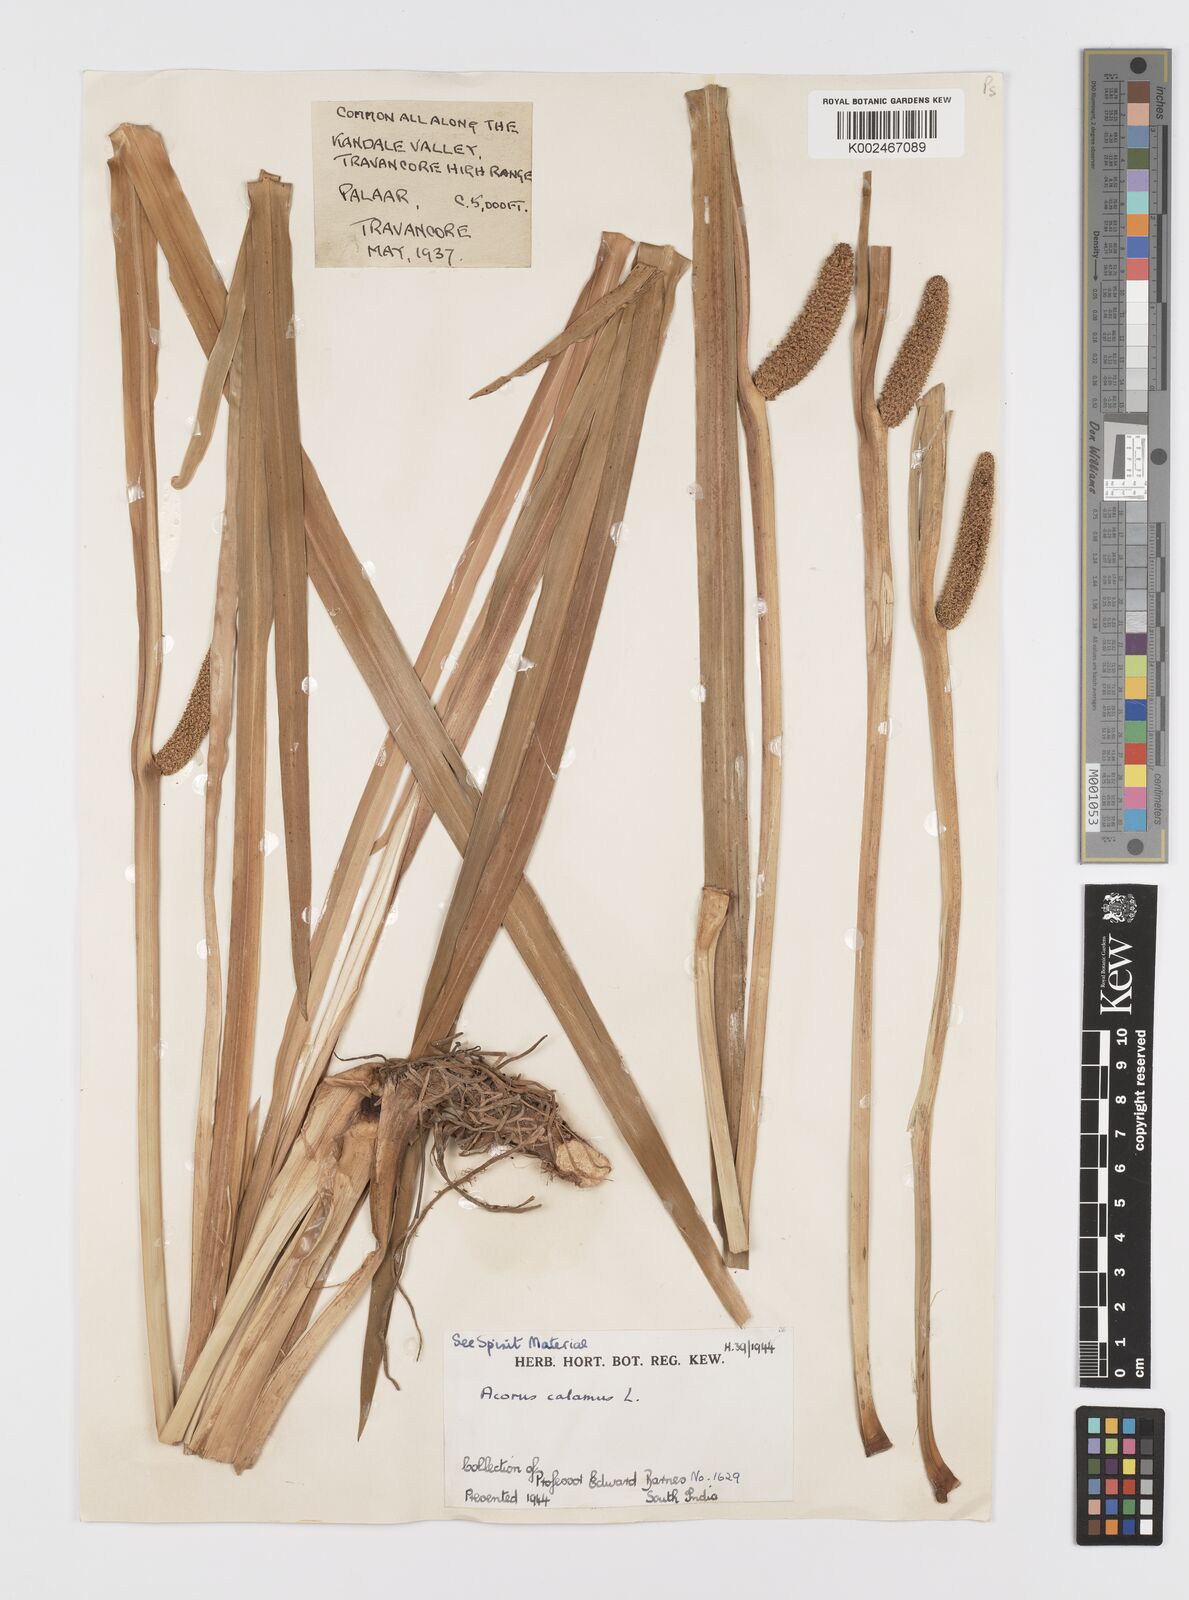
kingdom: Plantae
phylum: Tracheophyta
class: Liliopsida
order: Acorales
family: Acoraceae
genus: Acorus
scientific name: Acorus calamus
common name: Sweet-flag
